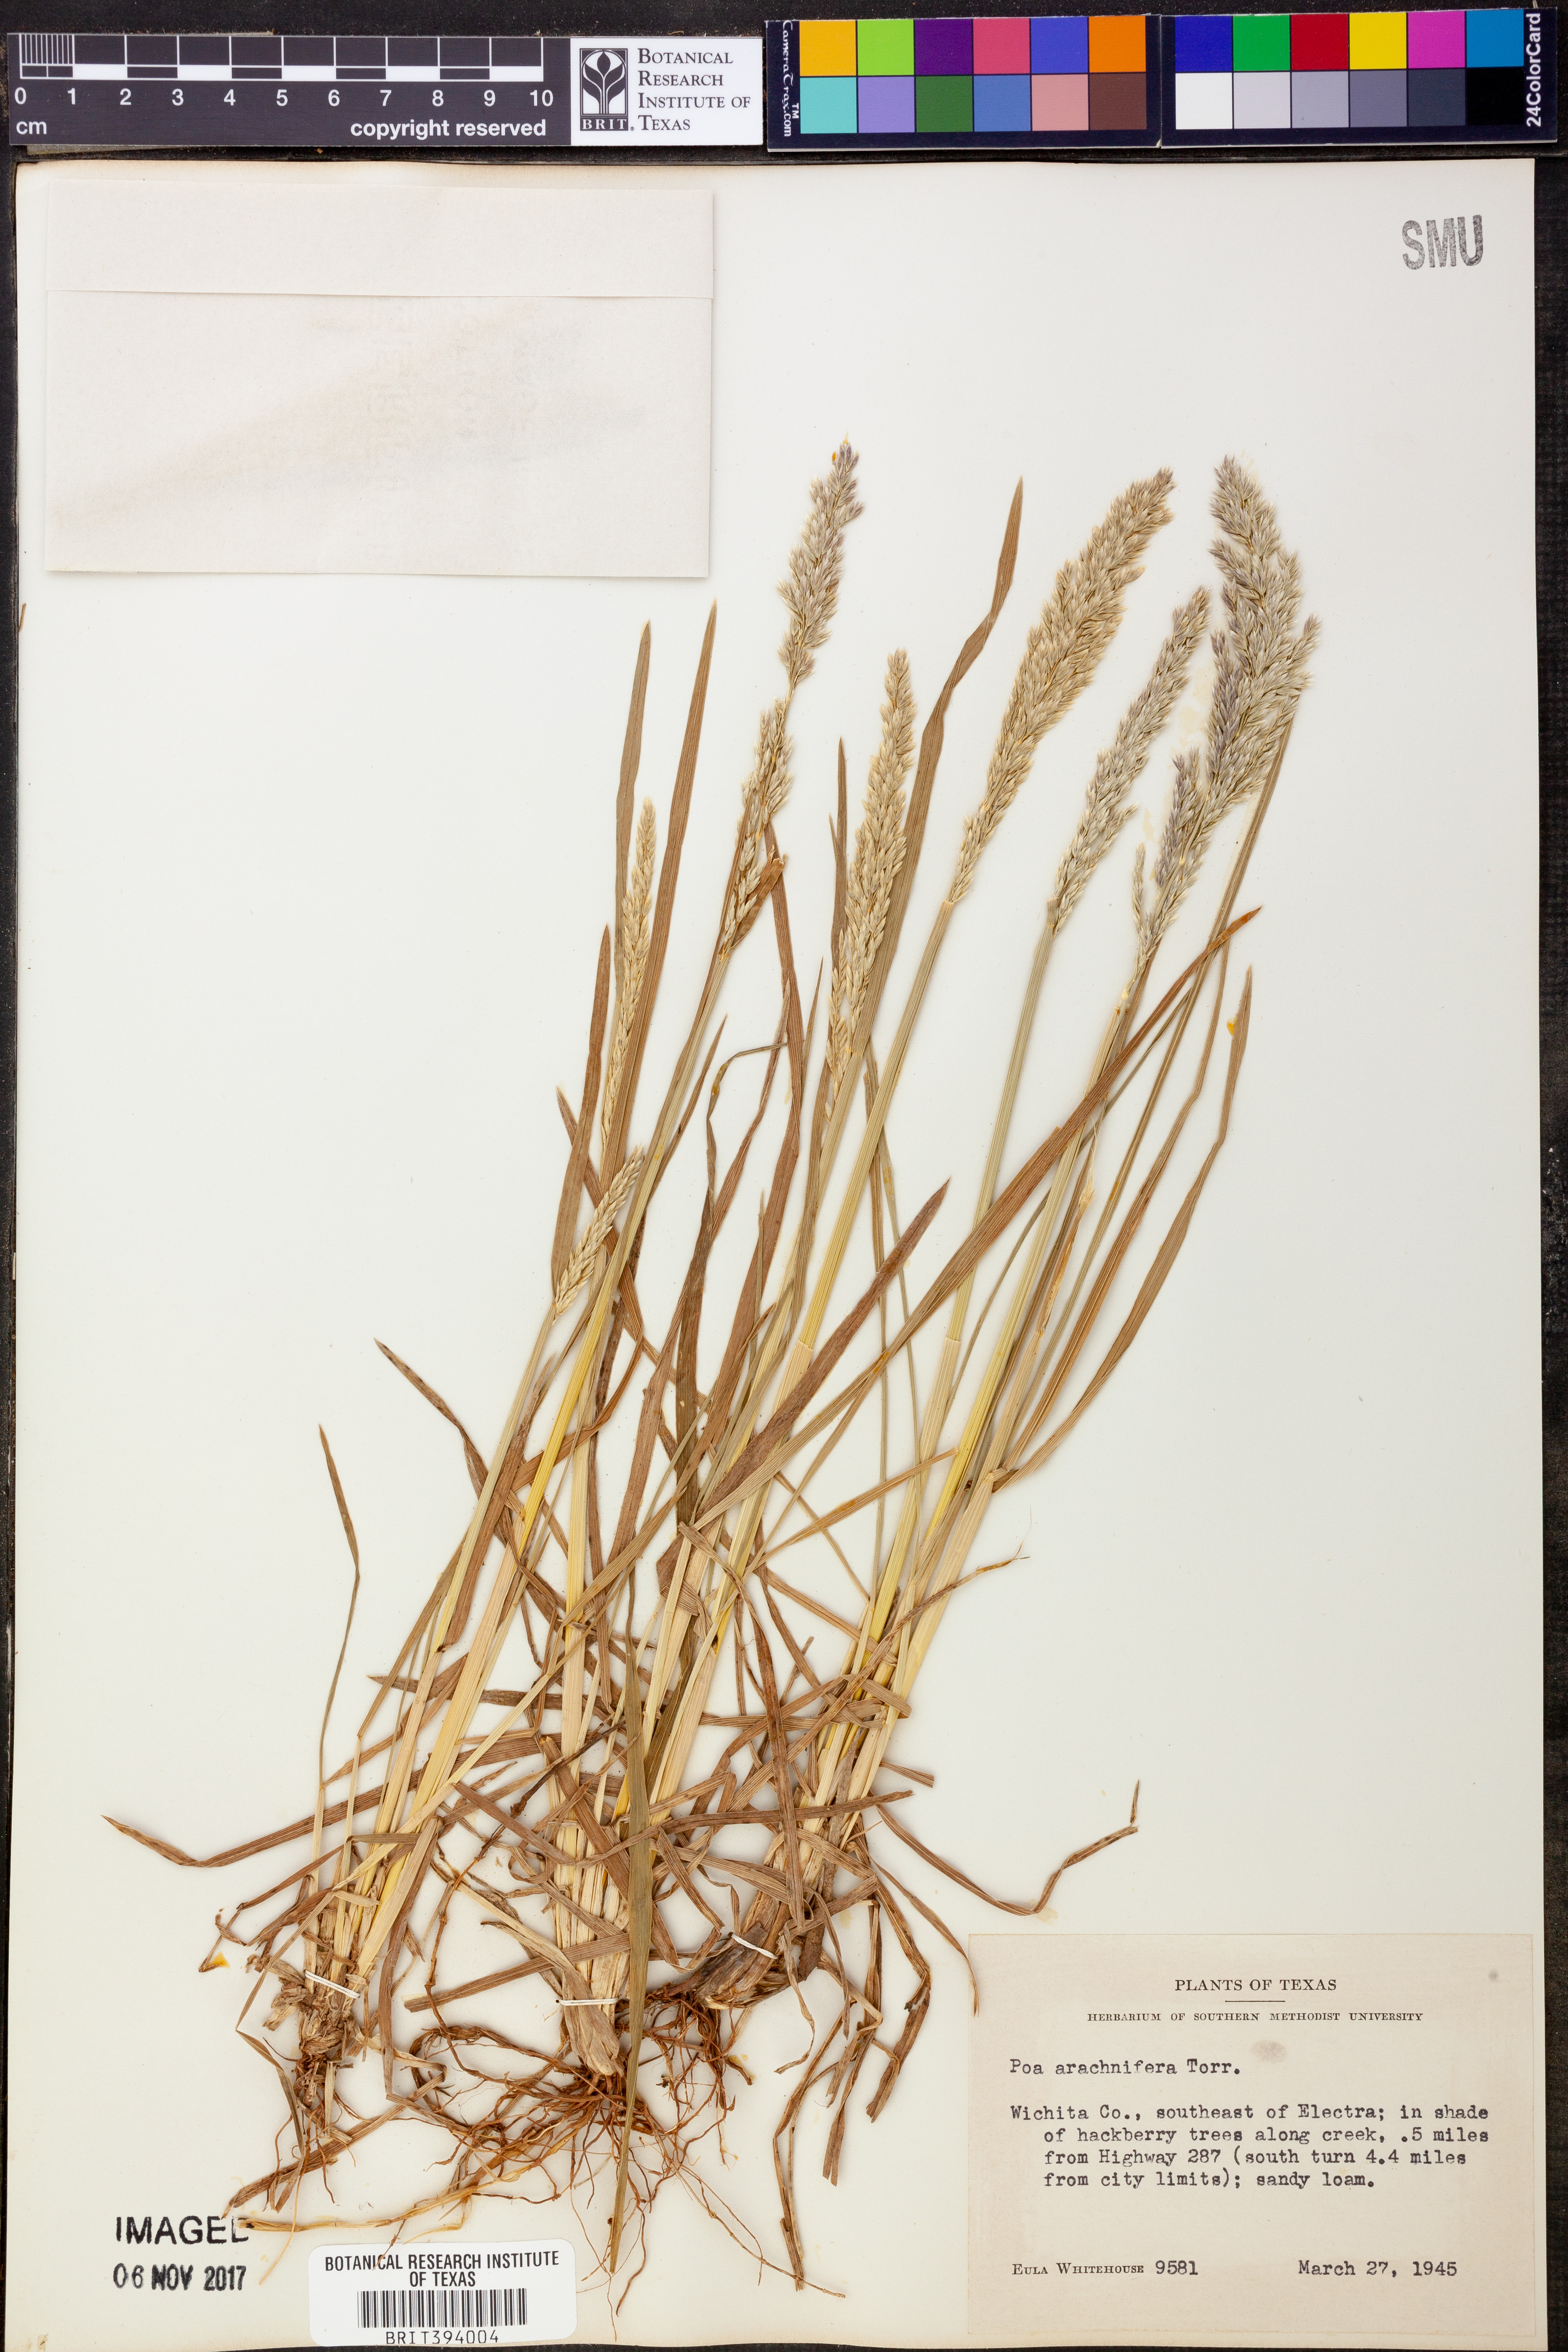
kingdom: Plantae
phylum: Tracheophyta
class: Liliopsida
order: Poales
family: Poaceae
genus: Poa
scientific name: Poa arachnifera
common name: Texas bluegrass
